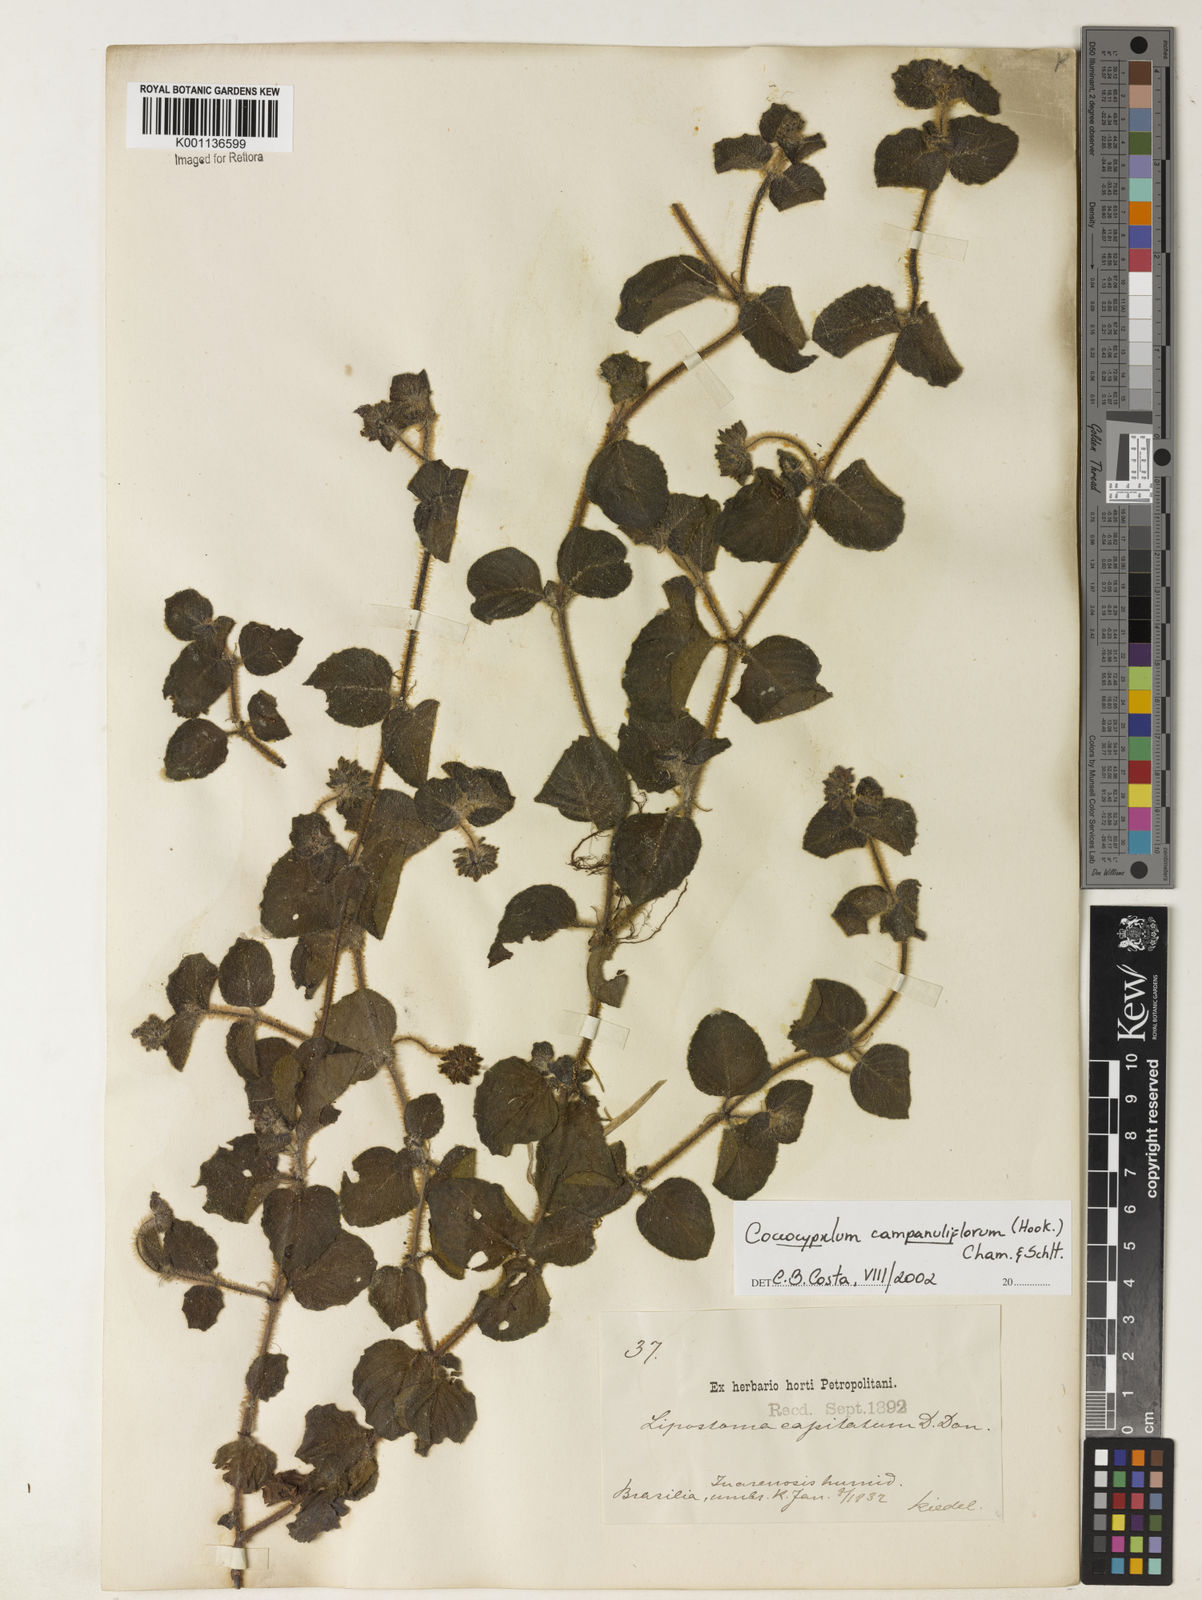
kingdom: Plantae
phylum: Tracheophyta
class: Magnoliopsida
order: Gentianales
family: Rubiaceae
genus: Coccocypselum
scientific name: Coccocypselum capitatum
